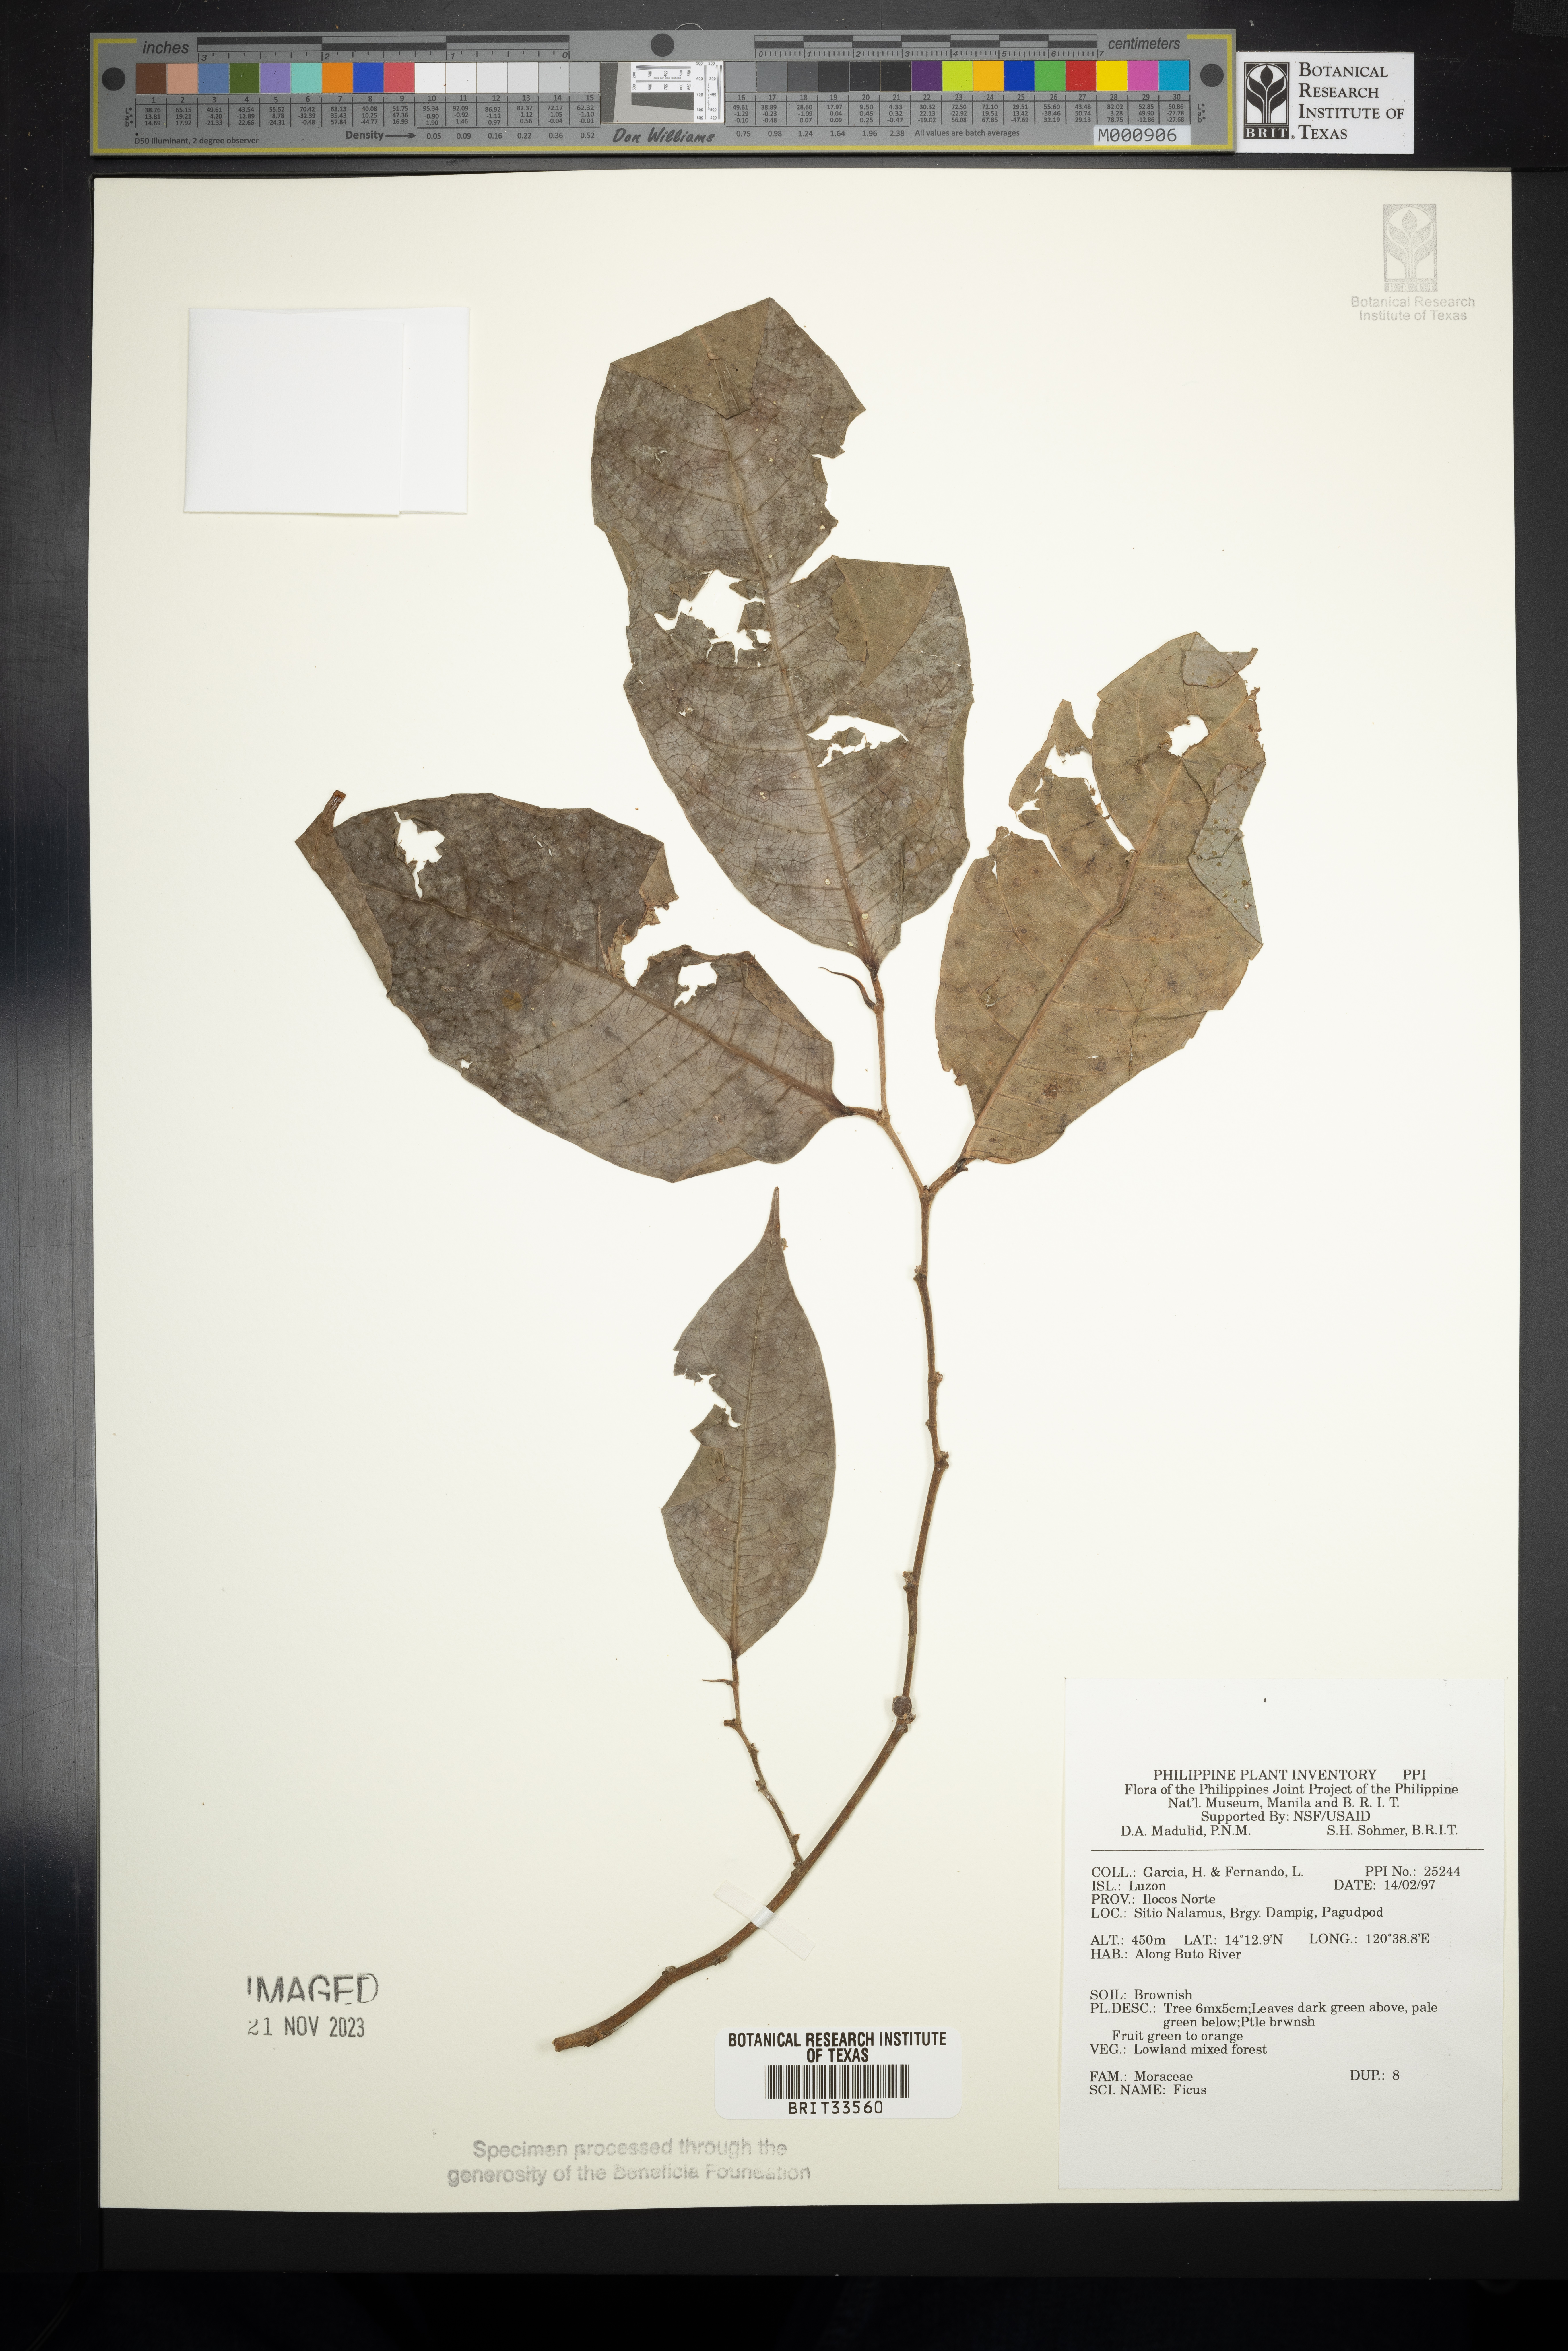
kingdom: Plantae
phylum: Tracheophyta
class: Magnoliopsida
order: Rosales
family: Moraceae
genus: Ficus
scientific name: Ficus
